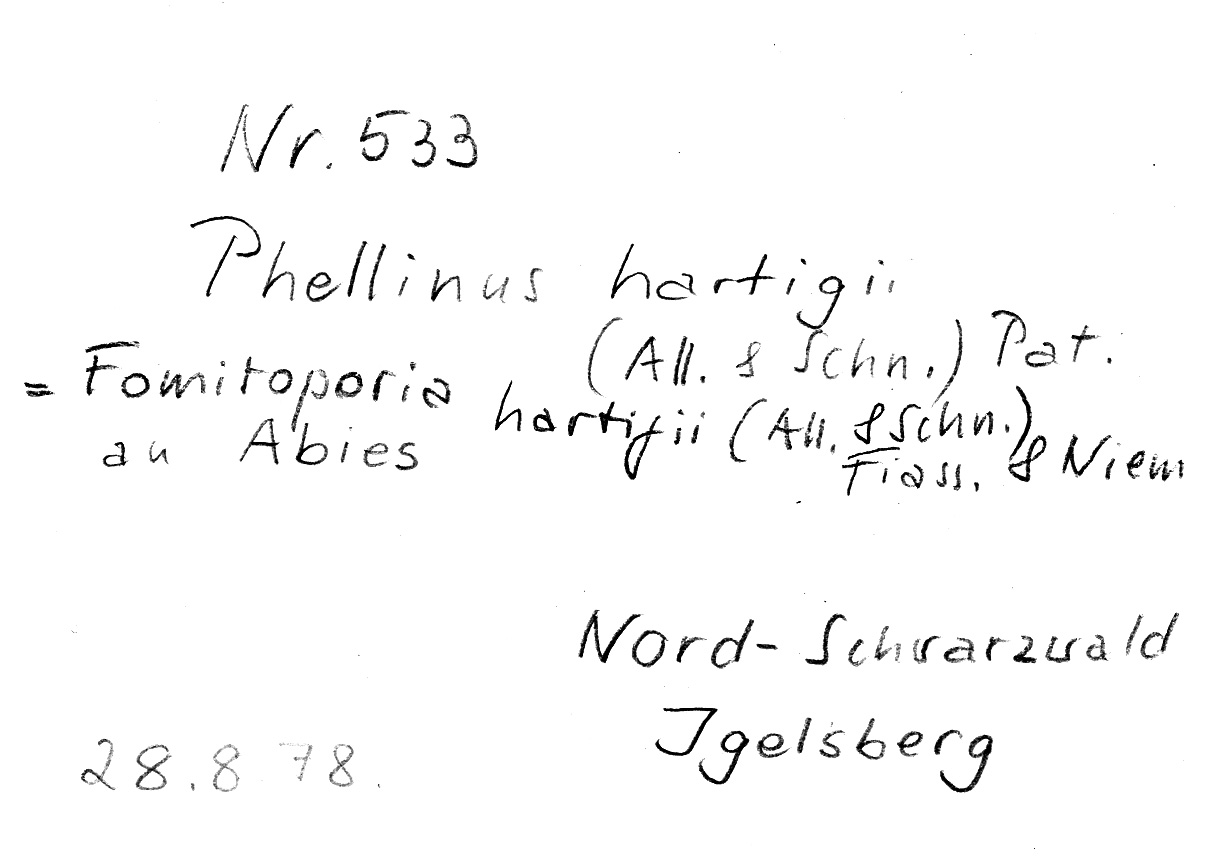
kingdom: Fungi
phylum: Basidiomycota
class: Agaricomycetes
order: Hymenochaetales
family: Hymenochaetaceae
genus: Phellinus
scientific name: Phellinus hartigii
